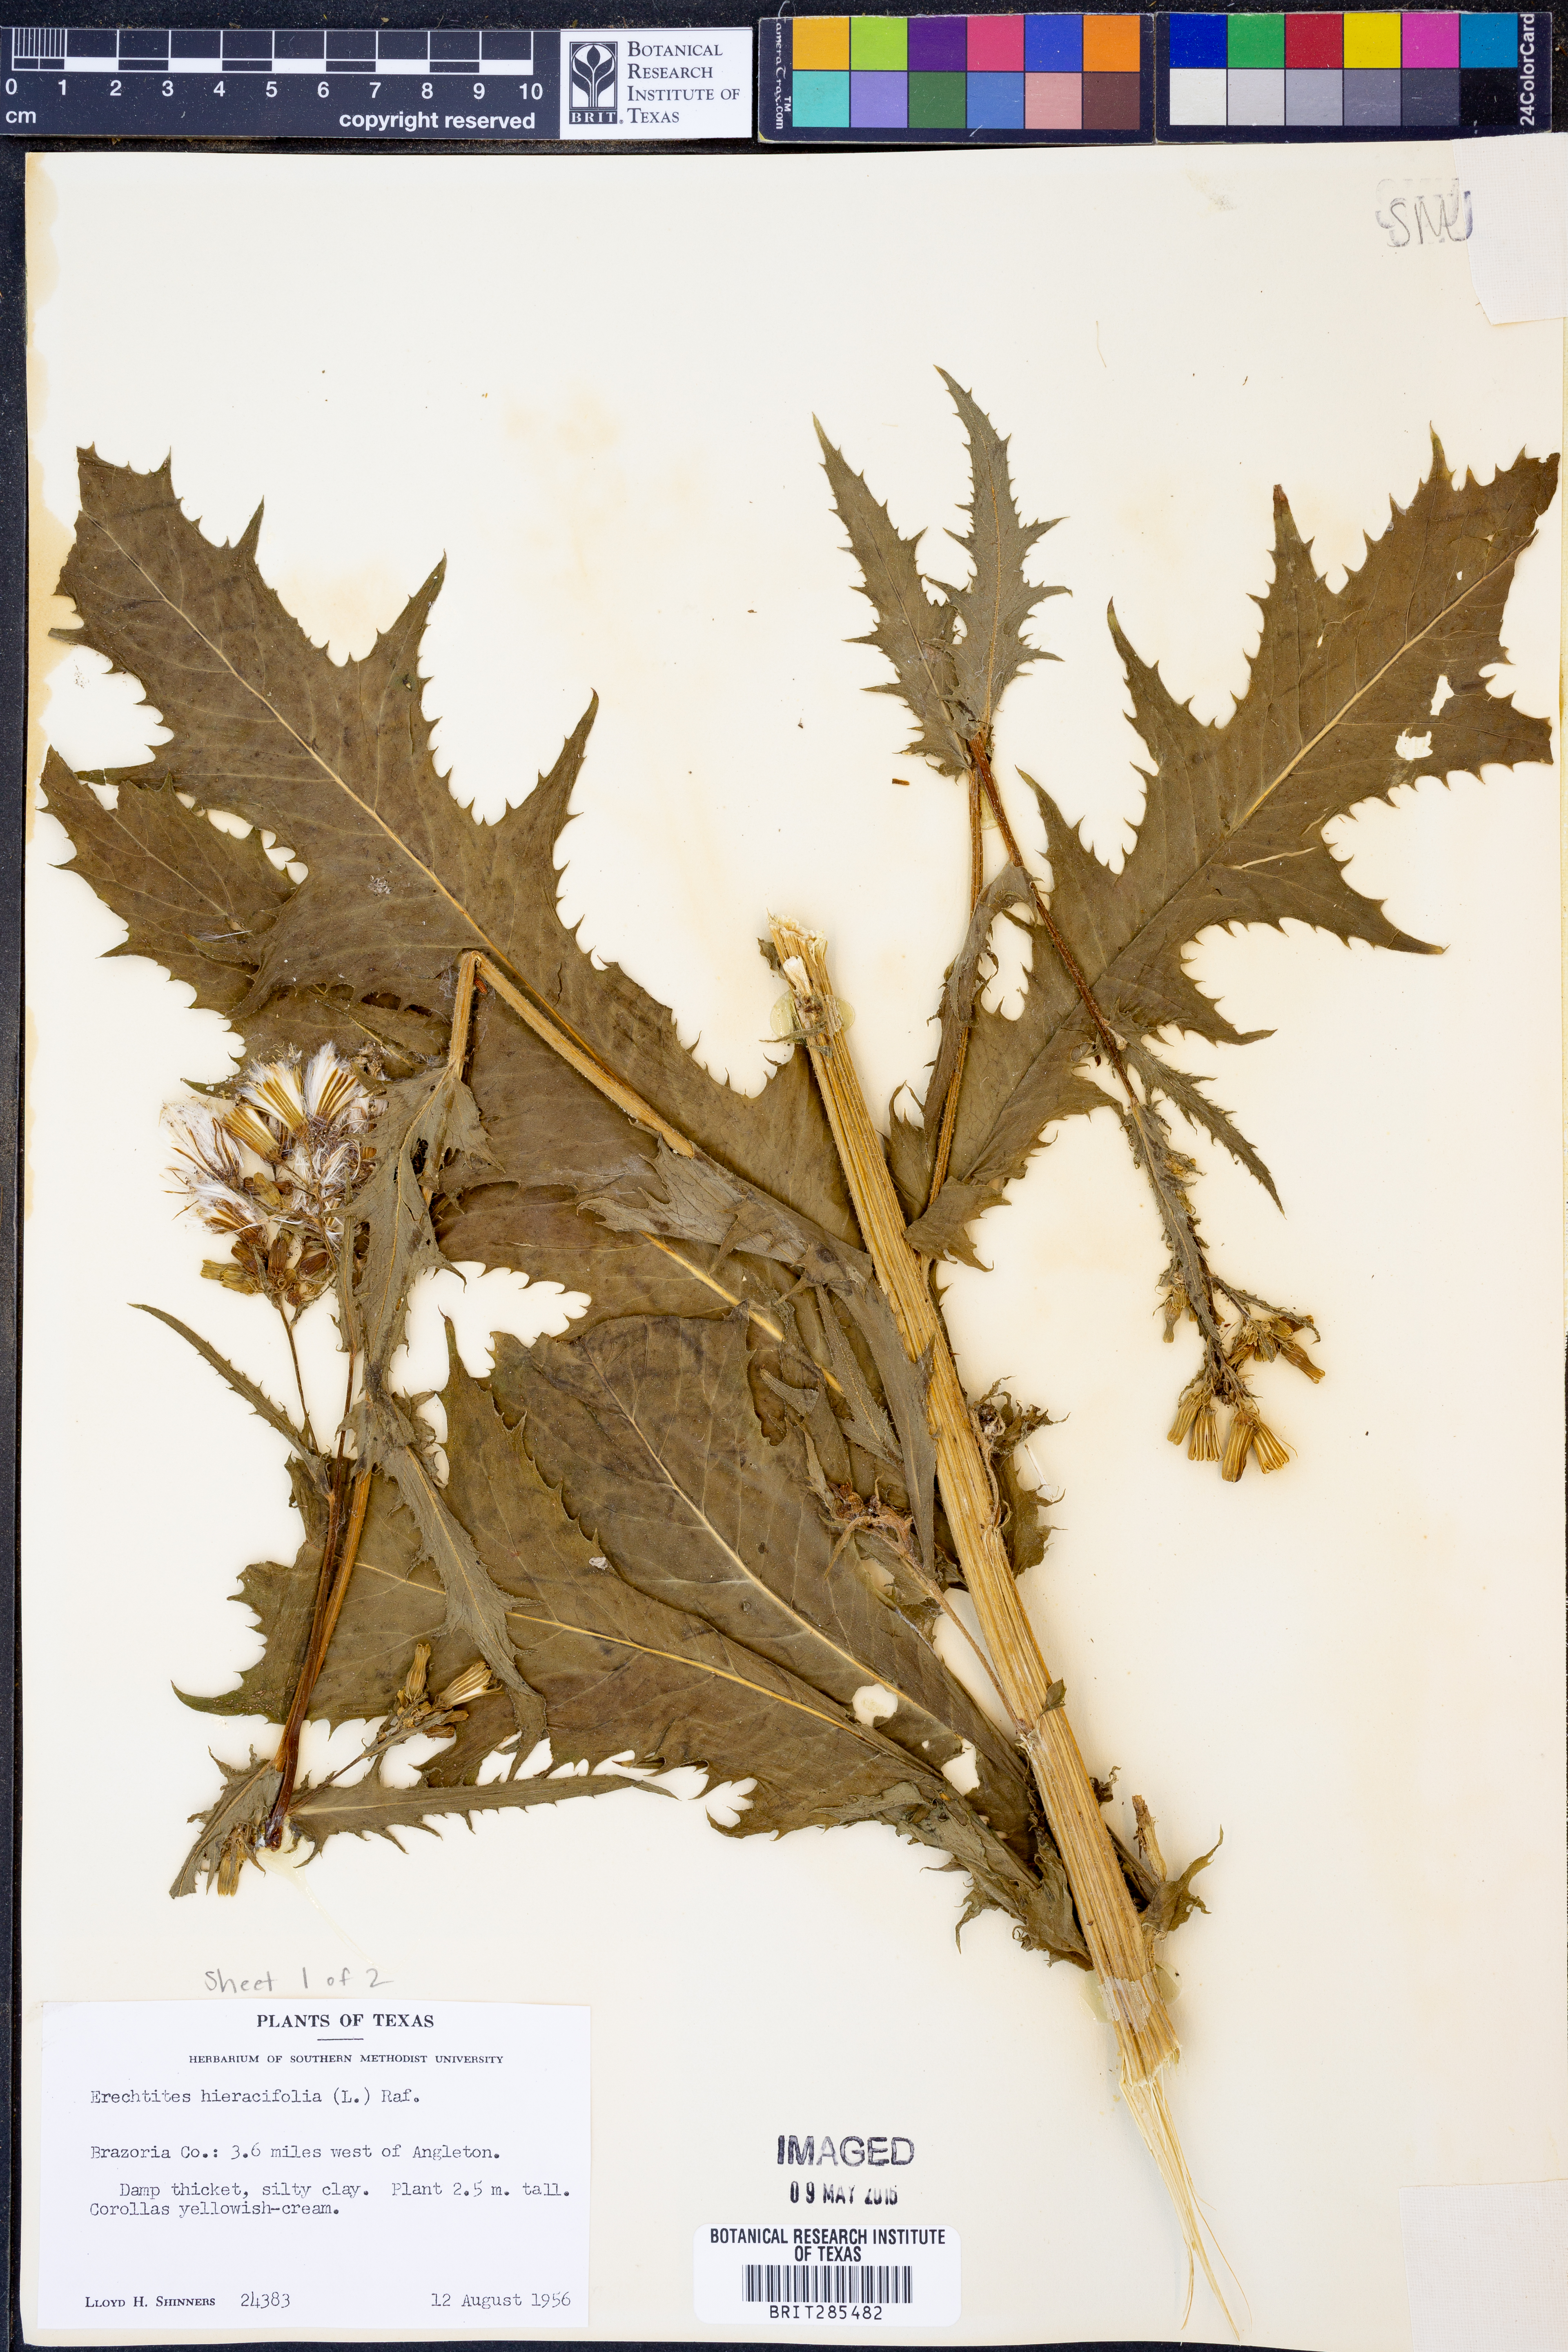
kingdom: Plantae
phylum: Tracheophyta
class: Magnoliopsida
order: Asterales
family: Asteraceae
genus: Erechtites
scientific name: Erechtites hieraciifolius
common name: American burnweed
